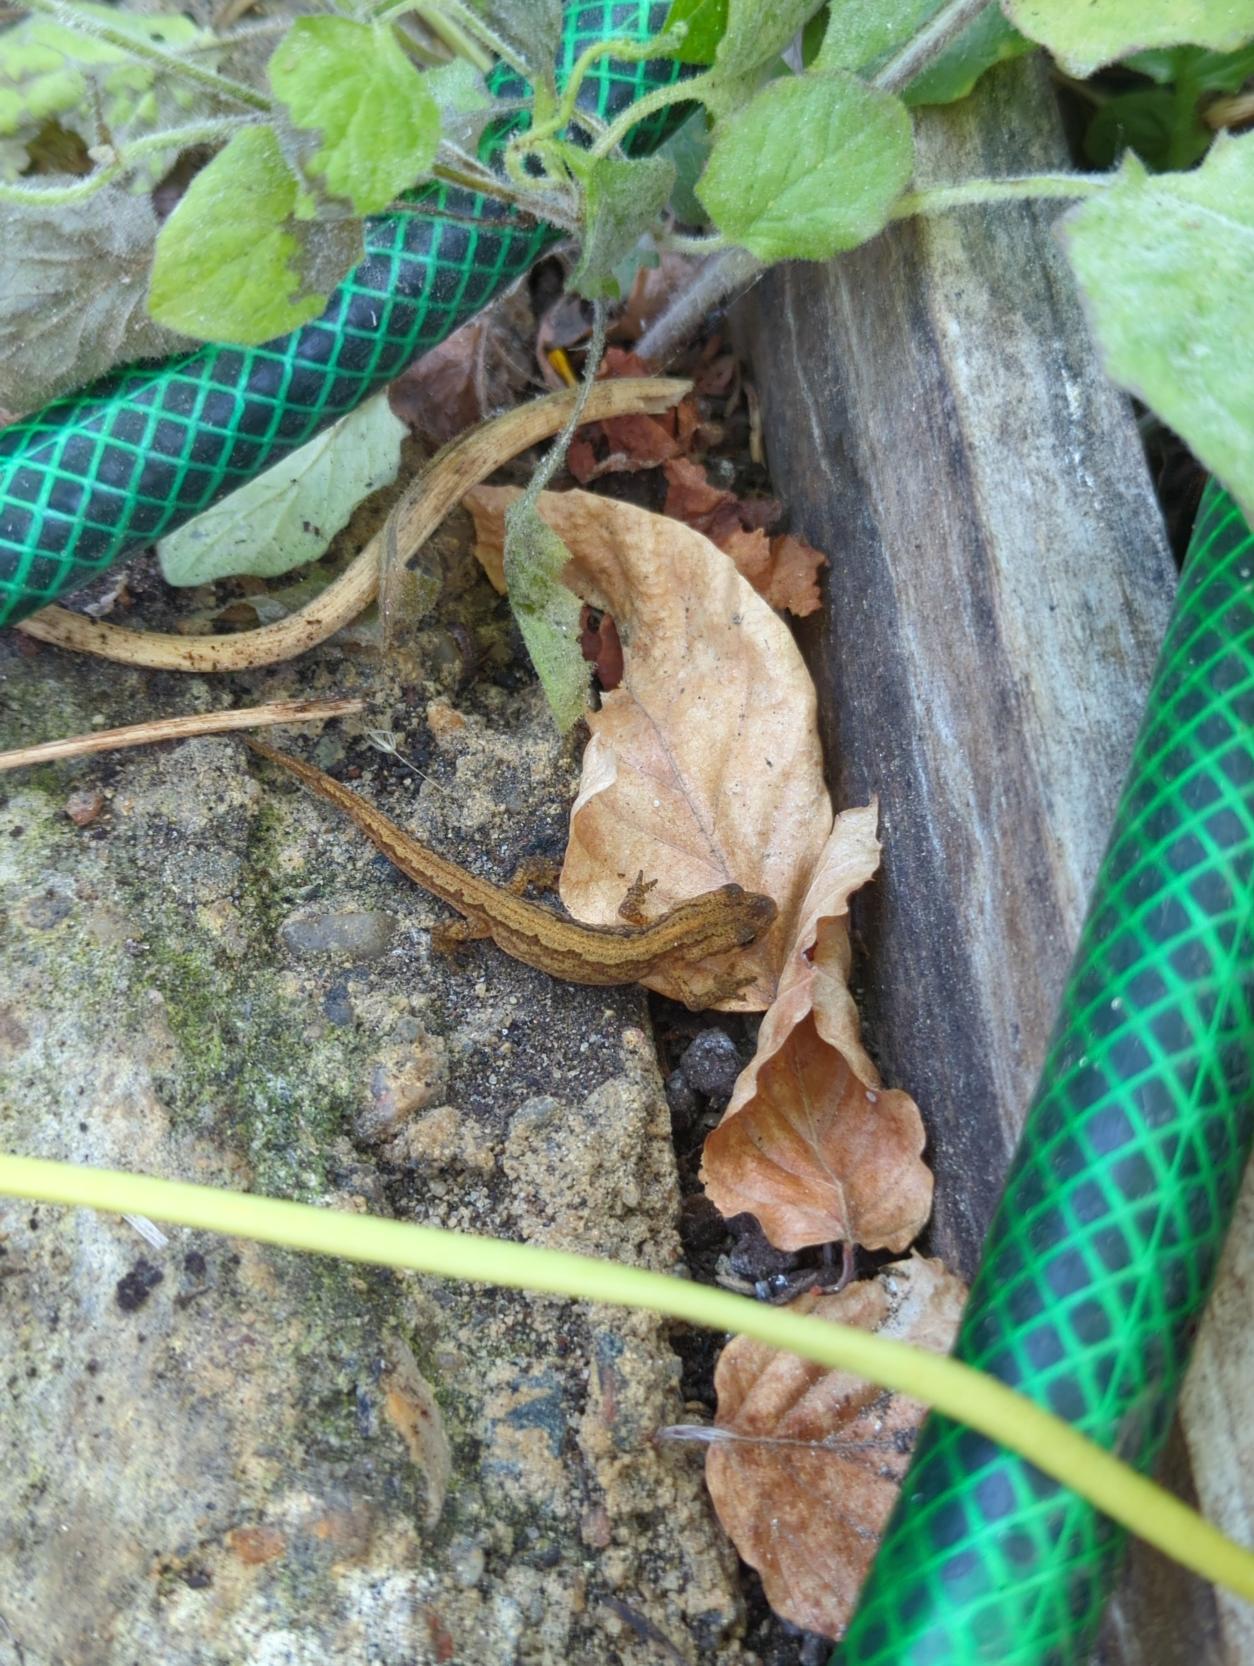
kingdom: Animalia
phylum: Chordata
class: Amphibia
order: Caudata
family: Salamandridae
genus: Lissotriton
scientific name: Lissotriton vulgaris
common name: Lille vandsalamander
